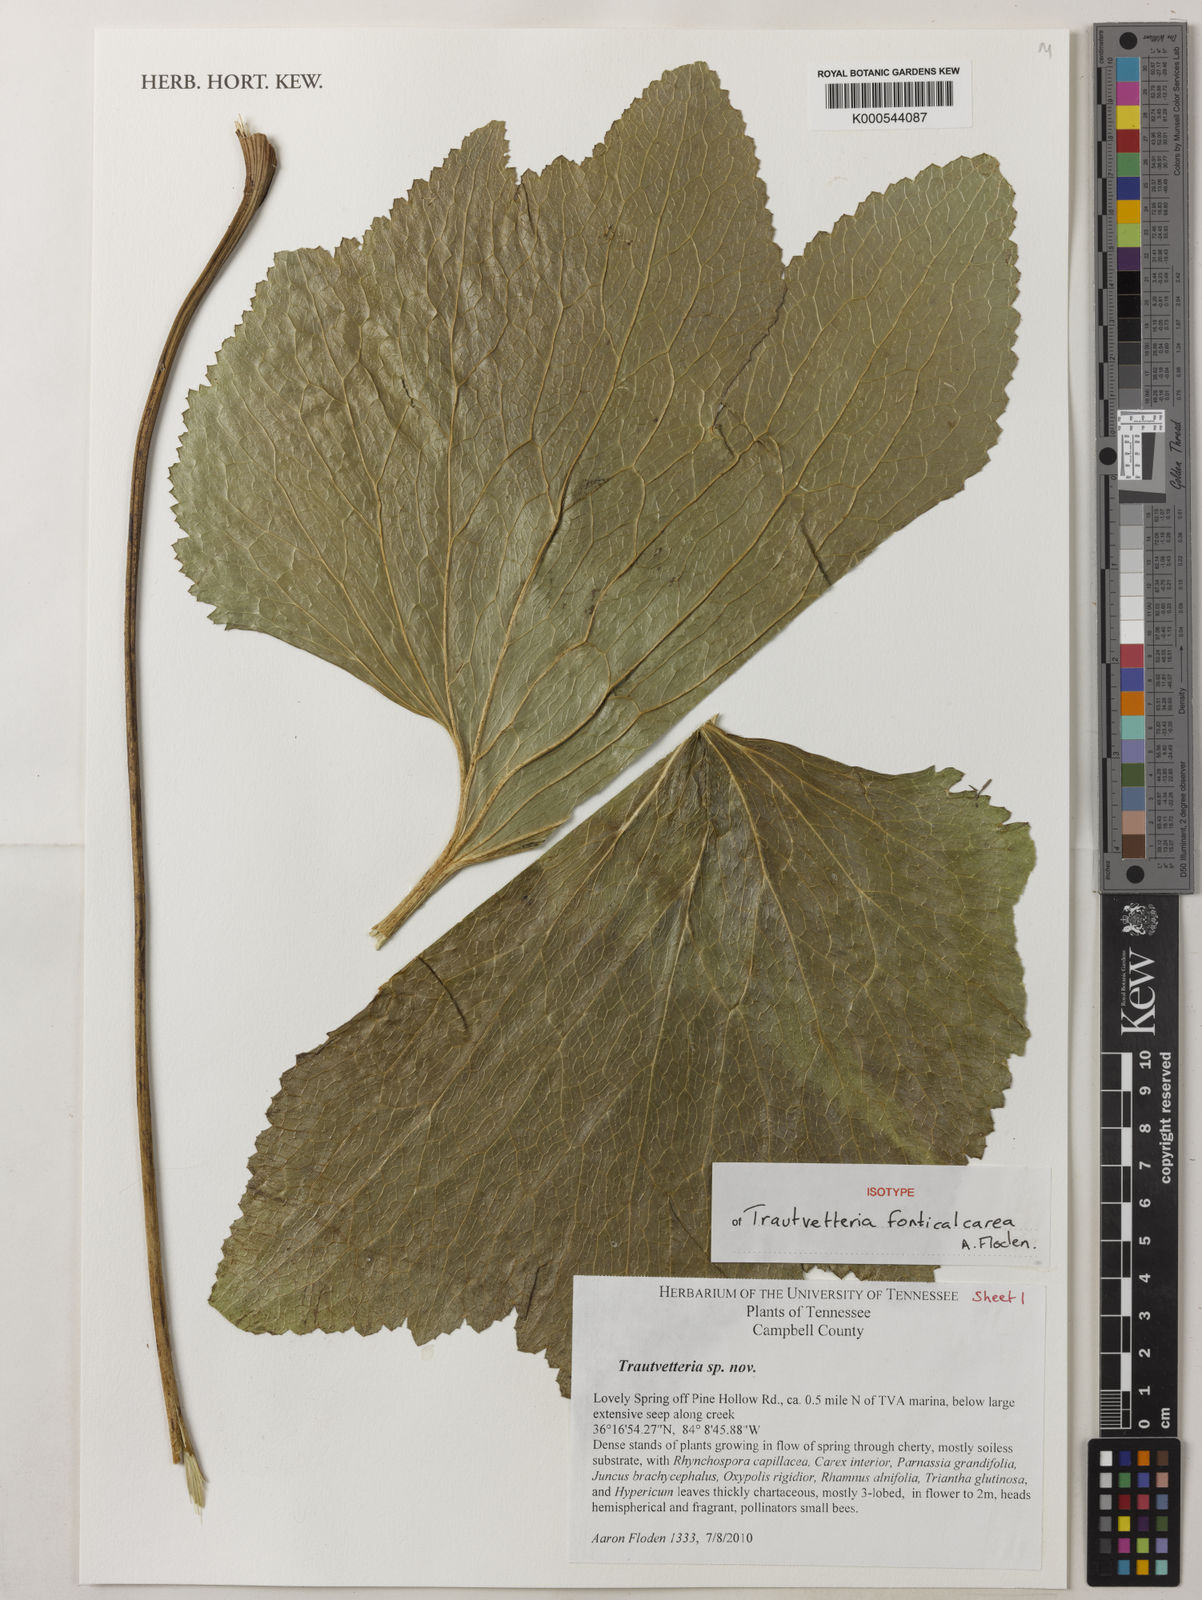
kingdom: Plantae
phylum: Tracheophyta
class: Magnoliopsida
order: Ranunculales
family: Ranunculaceae
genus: Trautvetteria
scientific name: Trautvetteria fonticalcarea
